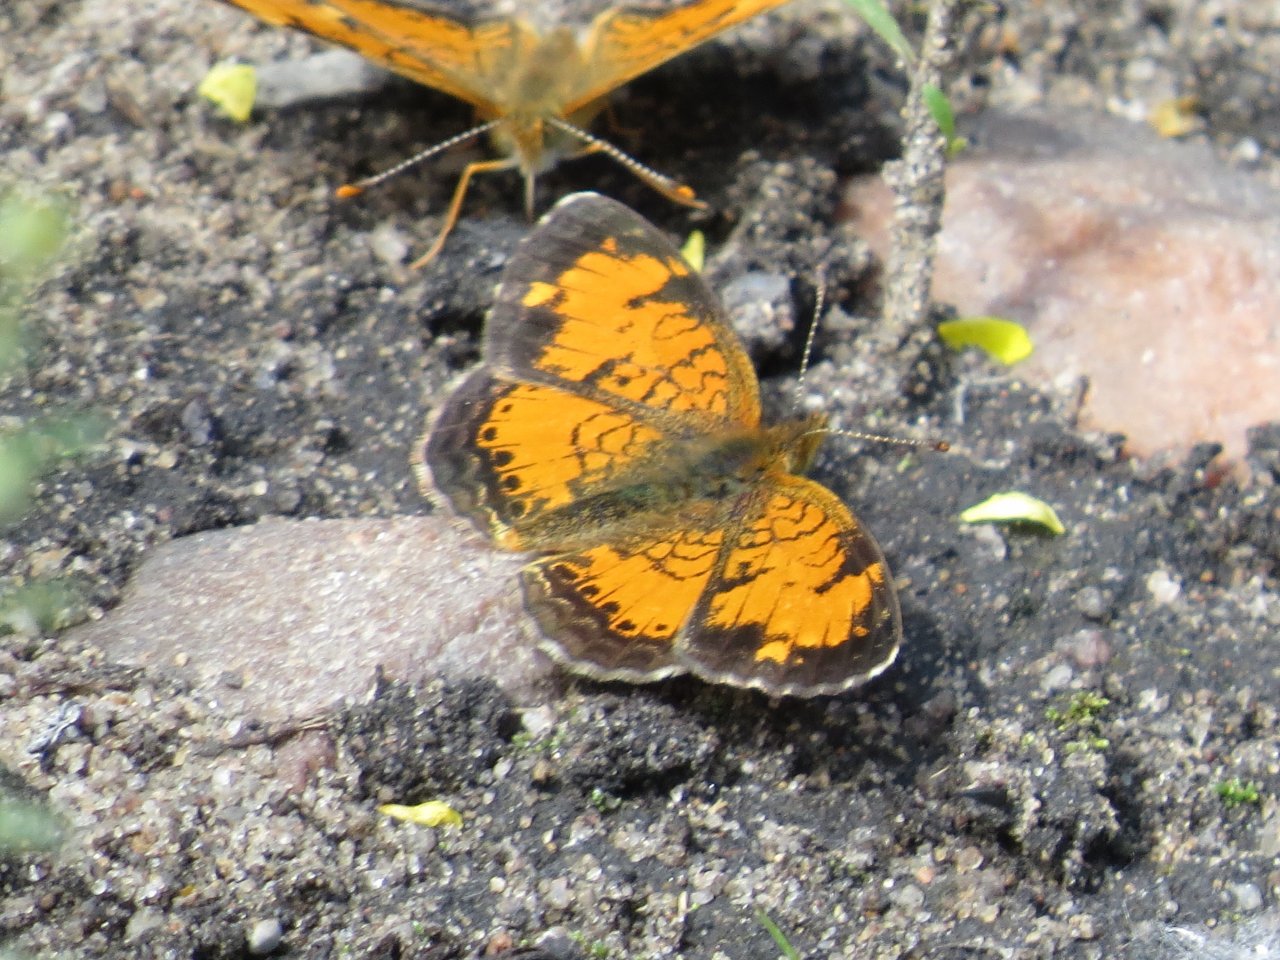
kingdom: Animalia
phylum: Arthropoda
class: Insecta
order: Lepidoptera
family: Nymphalidae
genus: Phyciodes
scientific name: Phyciodes tharos
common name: Northern Crescent
